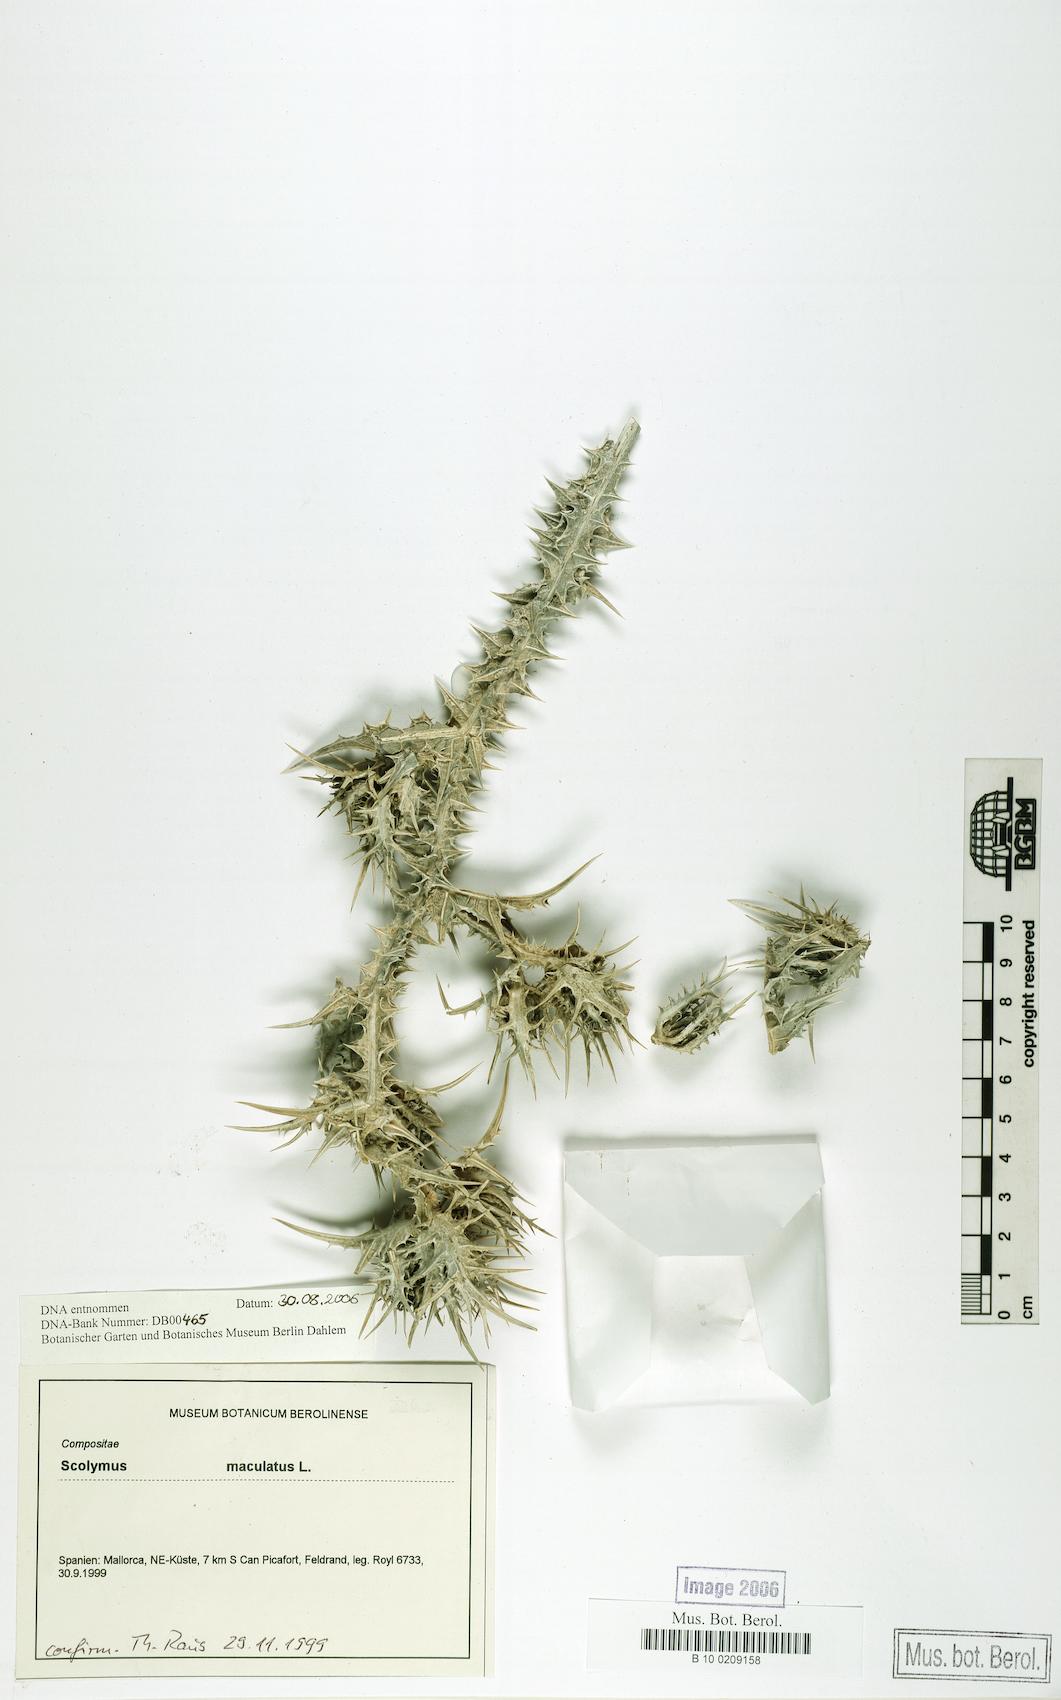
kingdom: Plantae
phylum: Tracheophyta
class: Magnoliopsida
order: Asterales
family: Asteraceae
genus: Scolymus
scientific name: Scolymus maculatus
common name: Spotted thistle
